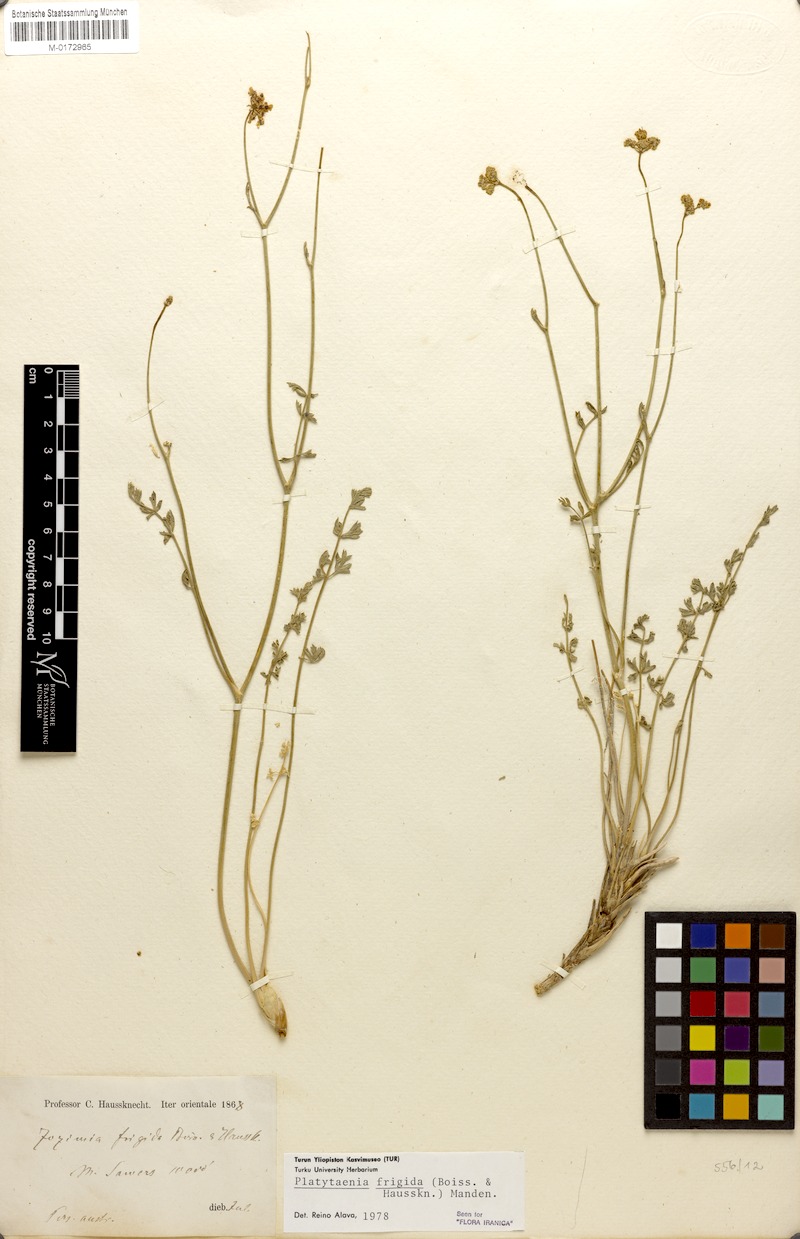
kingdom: Plantae
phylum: Tracheophyta
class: Magnoliopsida
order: Apiales
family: Apiaceae
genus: Semenovia
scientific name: Semenovia frigida
